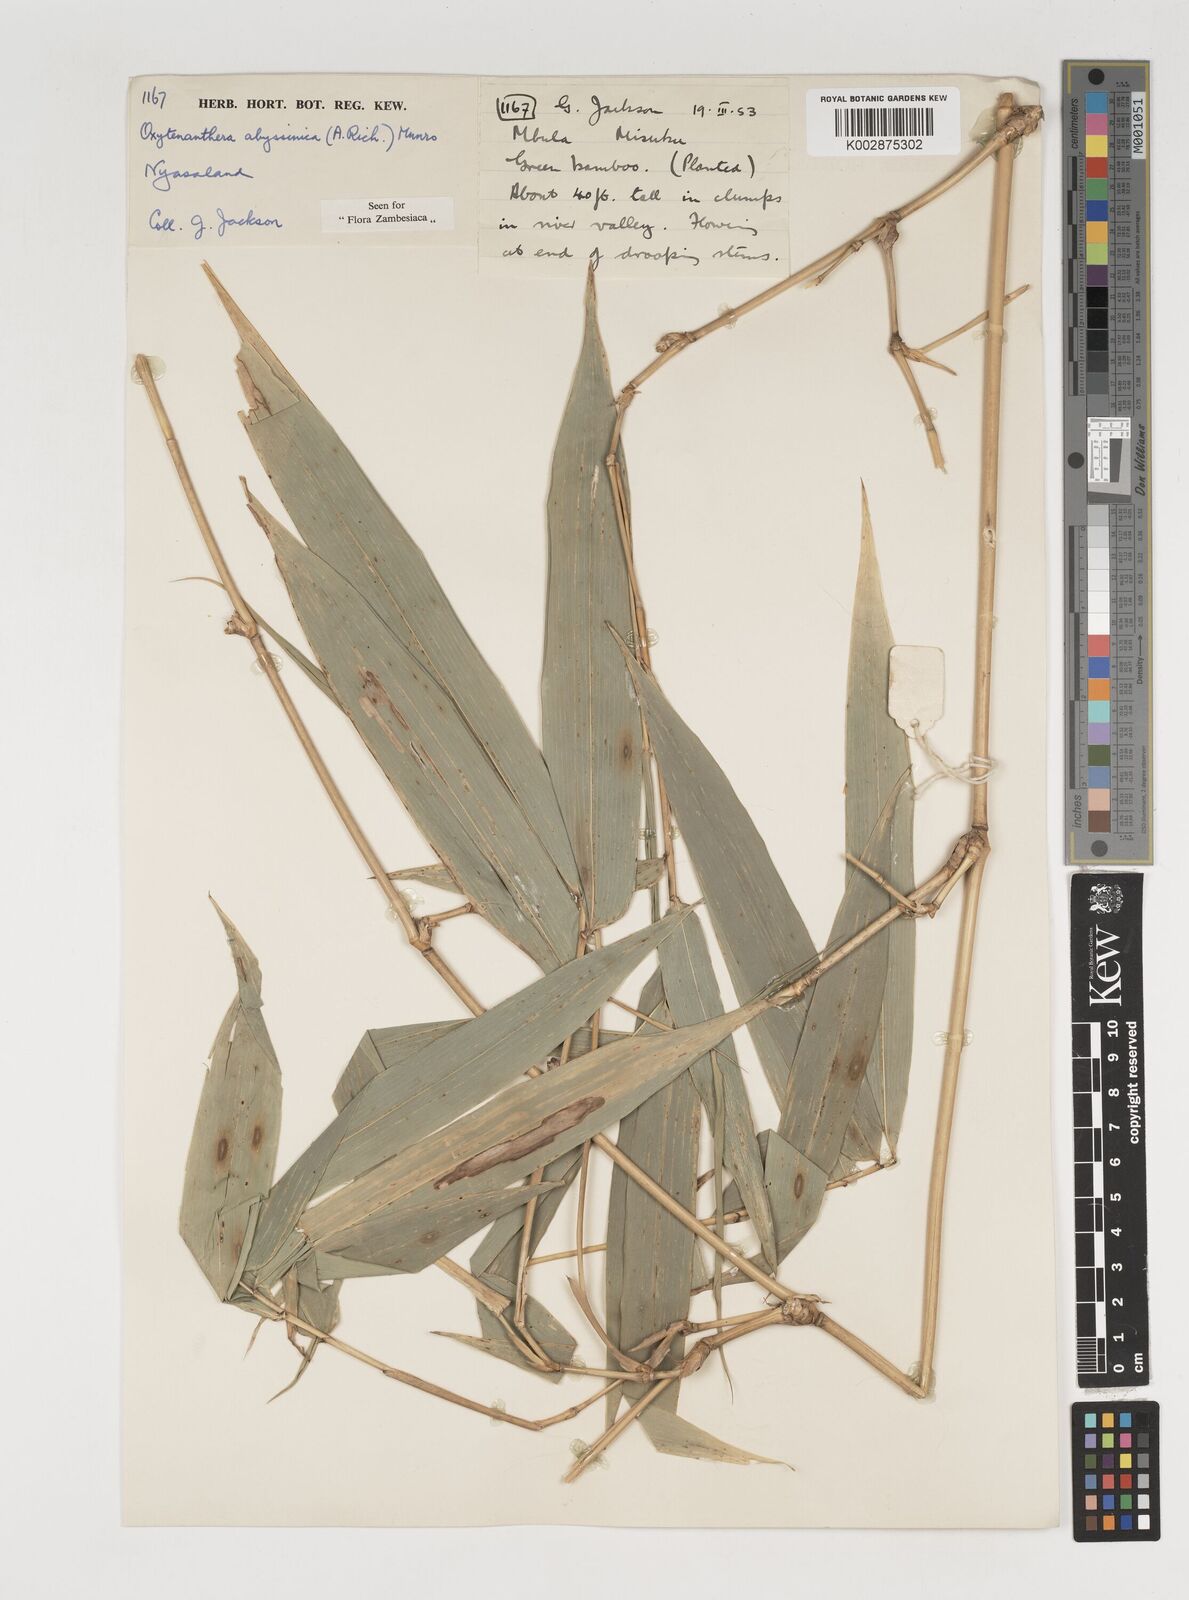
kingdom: Plantae
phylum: Tracheophyta
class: Liliopsida
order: Poales
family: Poaceae
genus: Oxytenanthera
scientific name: Oxytenanthera abyssinica
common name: Wine bamboo
